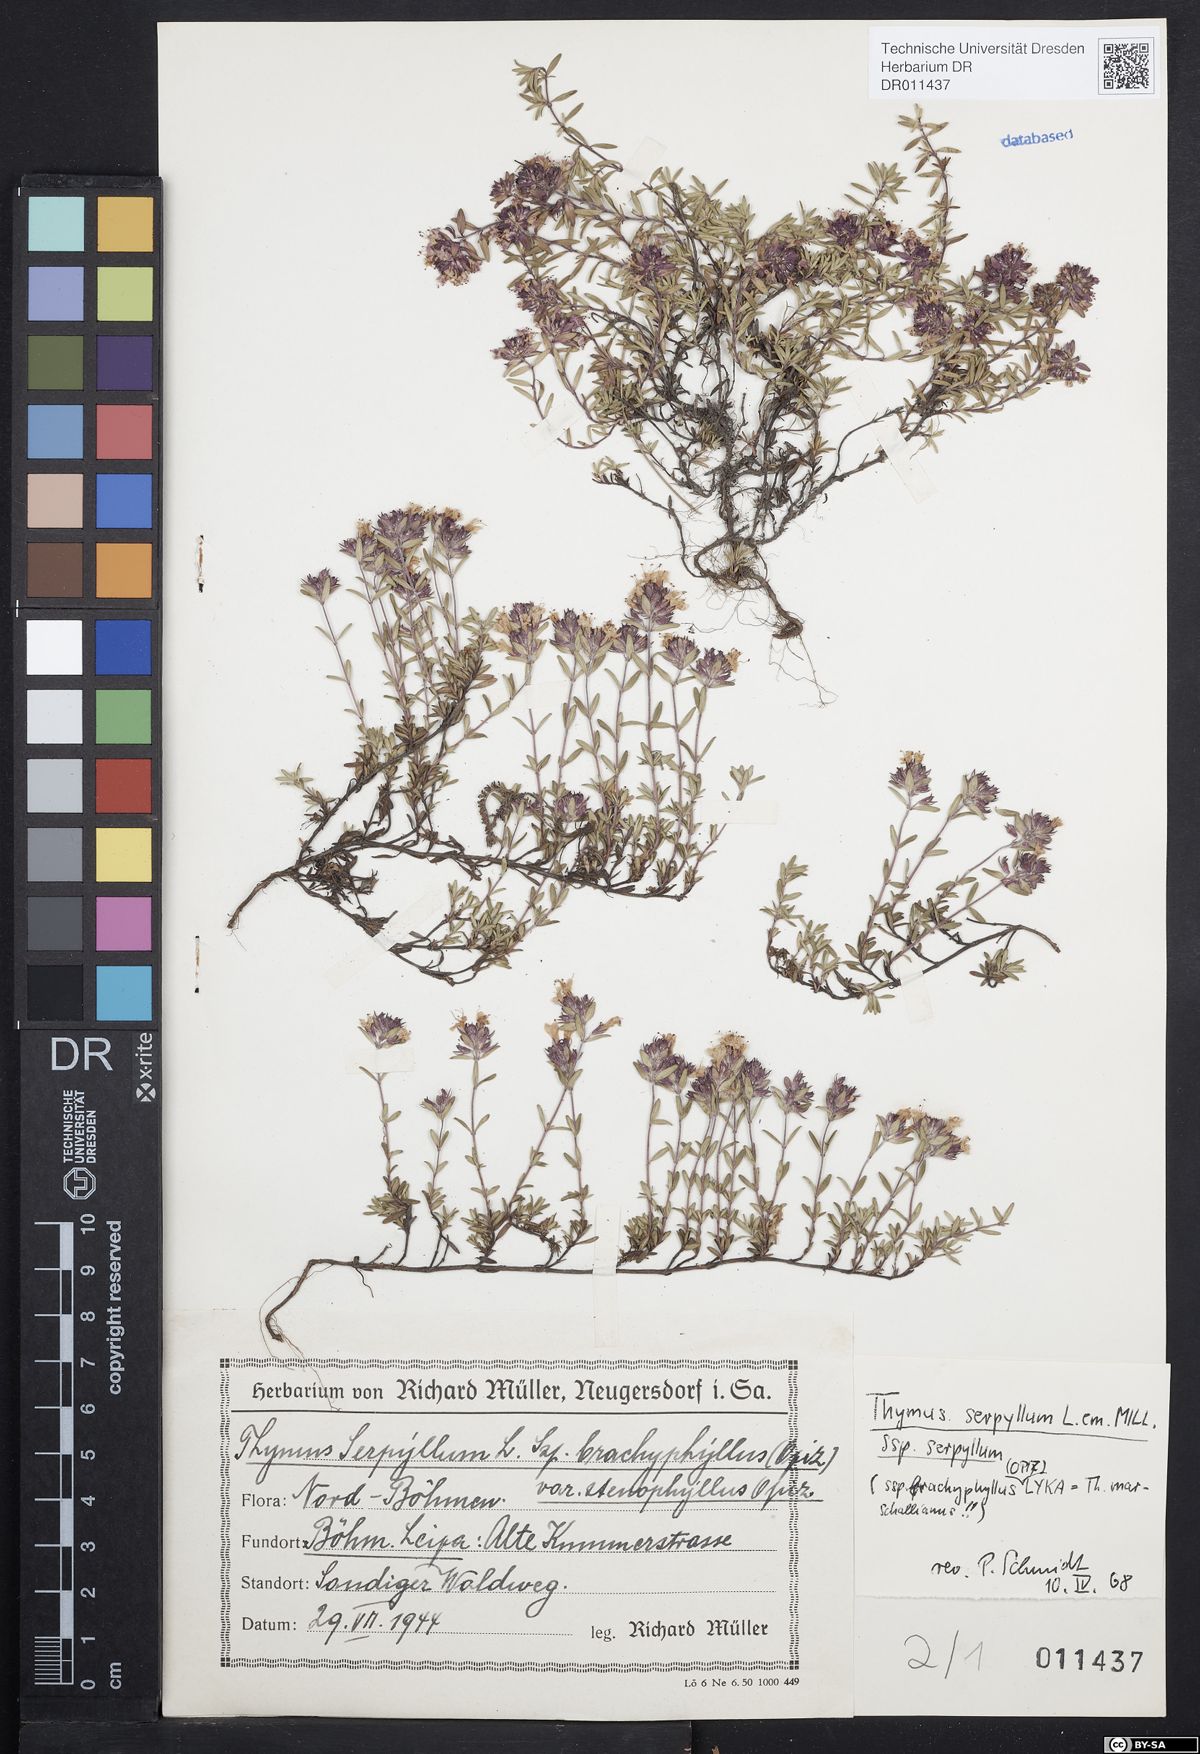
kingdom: Plantae
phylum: Tracheophyta
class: Magnoliopsida
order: Lamiales
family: Lamiaceae
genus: Thymus
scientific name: Thymus serpyllum
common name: Breckland thyme
